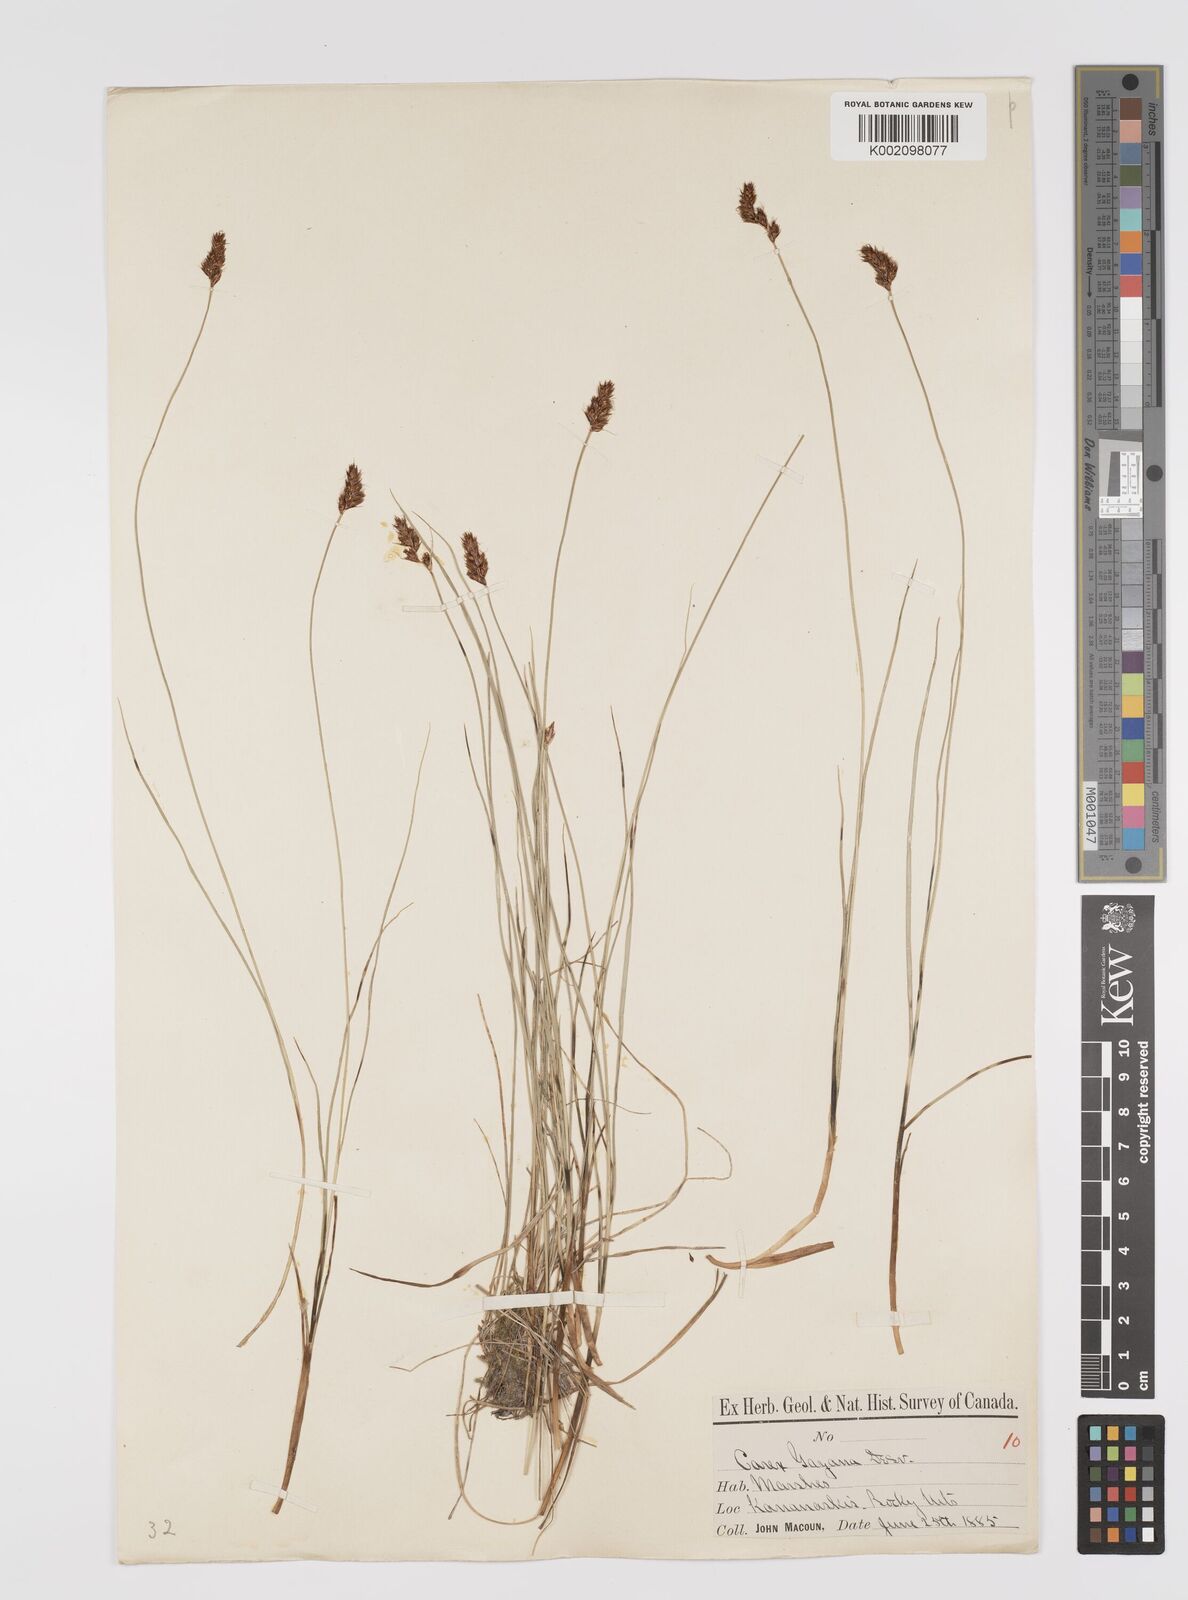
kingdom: Plantae
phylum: Tracheophyta
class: Liliopsida
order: Poales
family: Cyperaceae
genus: Carex
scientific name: Carex praegracilis
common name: Black creeper sedge
